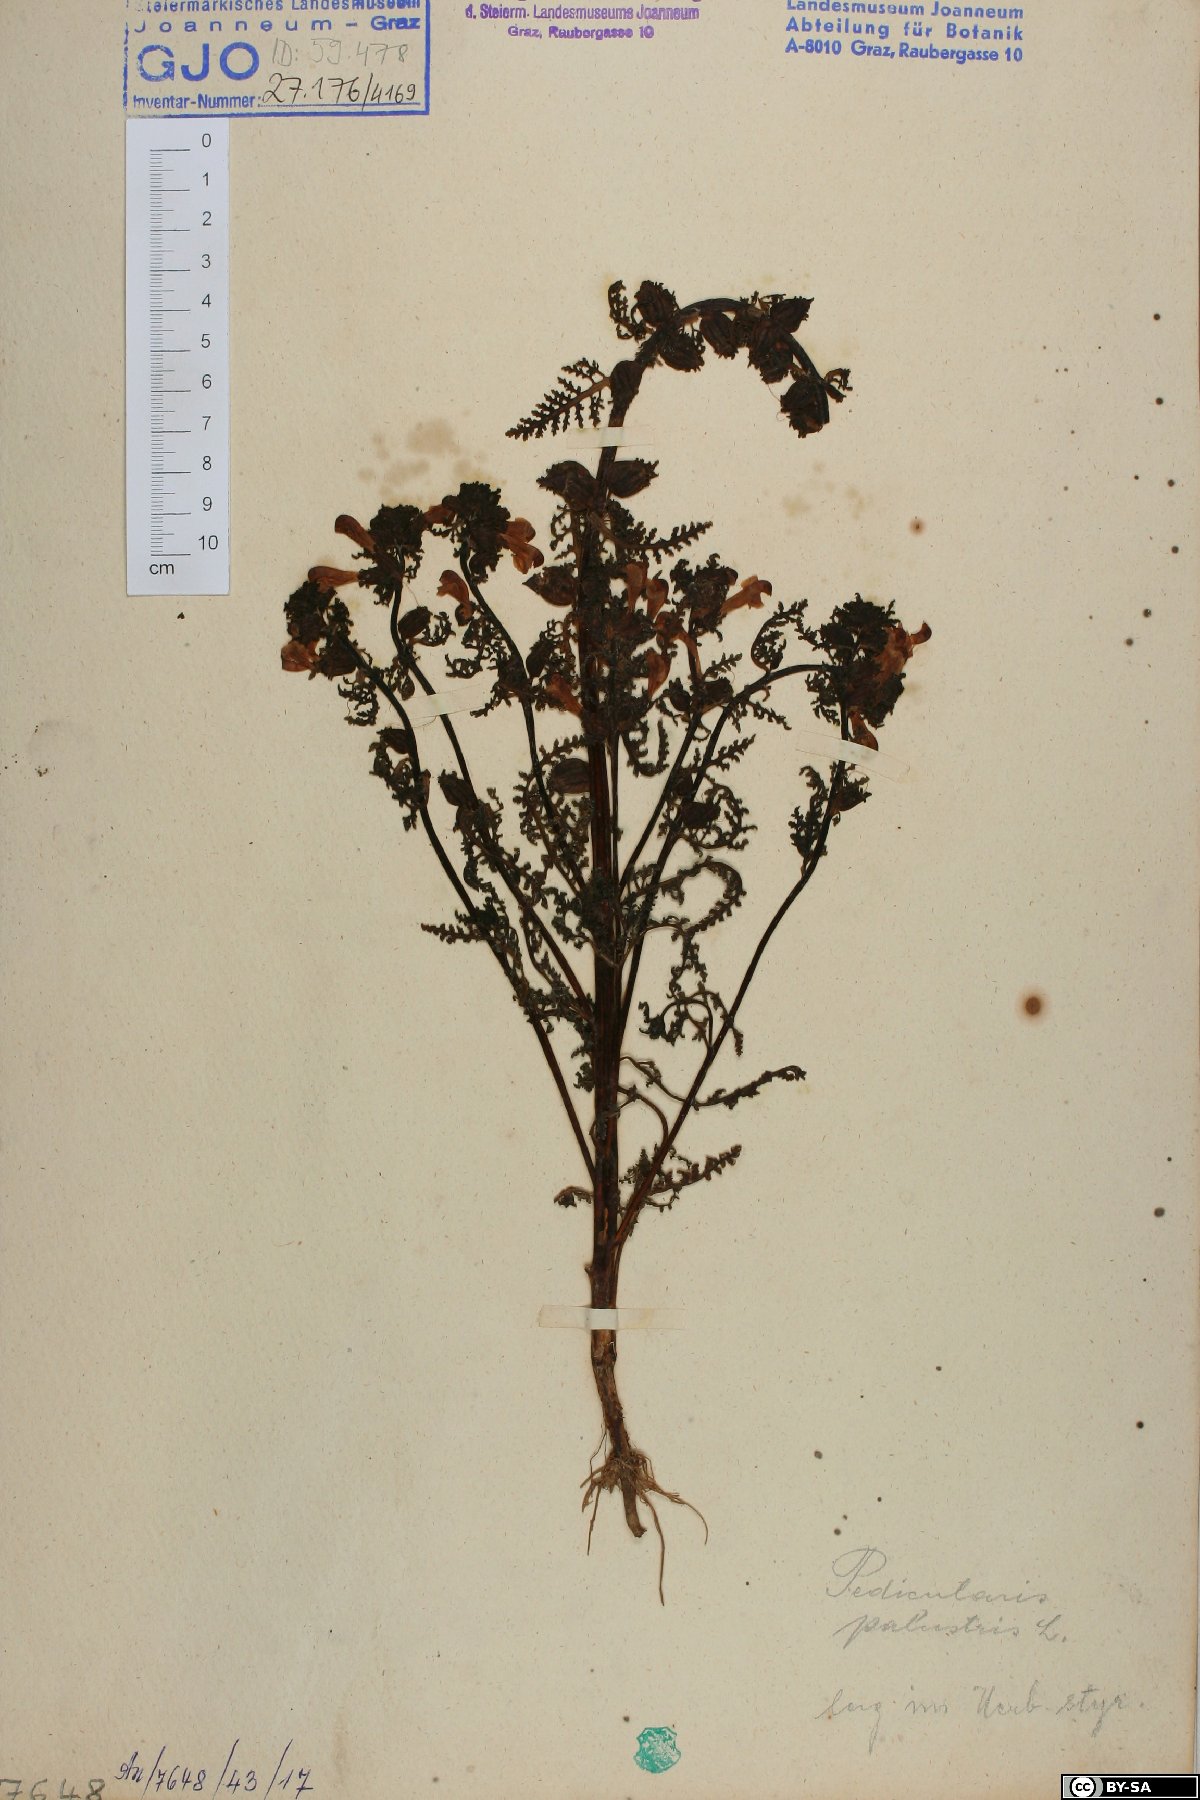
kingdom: Plantae
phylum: Tracheophyta
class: Magnoliopsida
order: Lamiales
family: Orobanchaceae
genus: Pedicularis
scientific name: Pedicularis palustris
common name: Marsh lousewort
